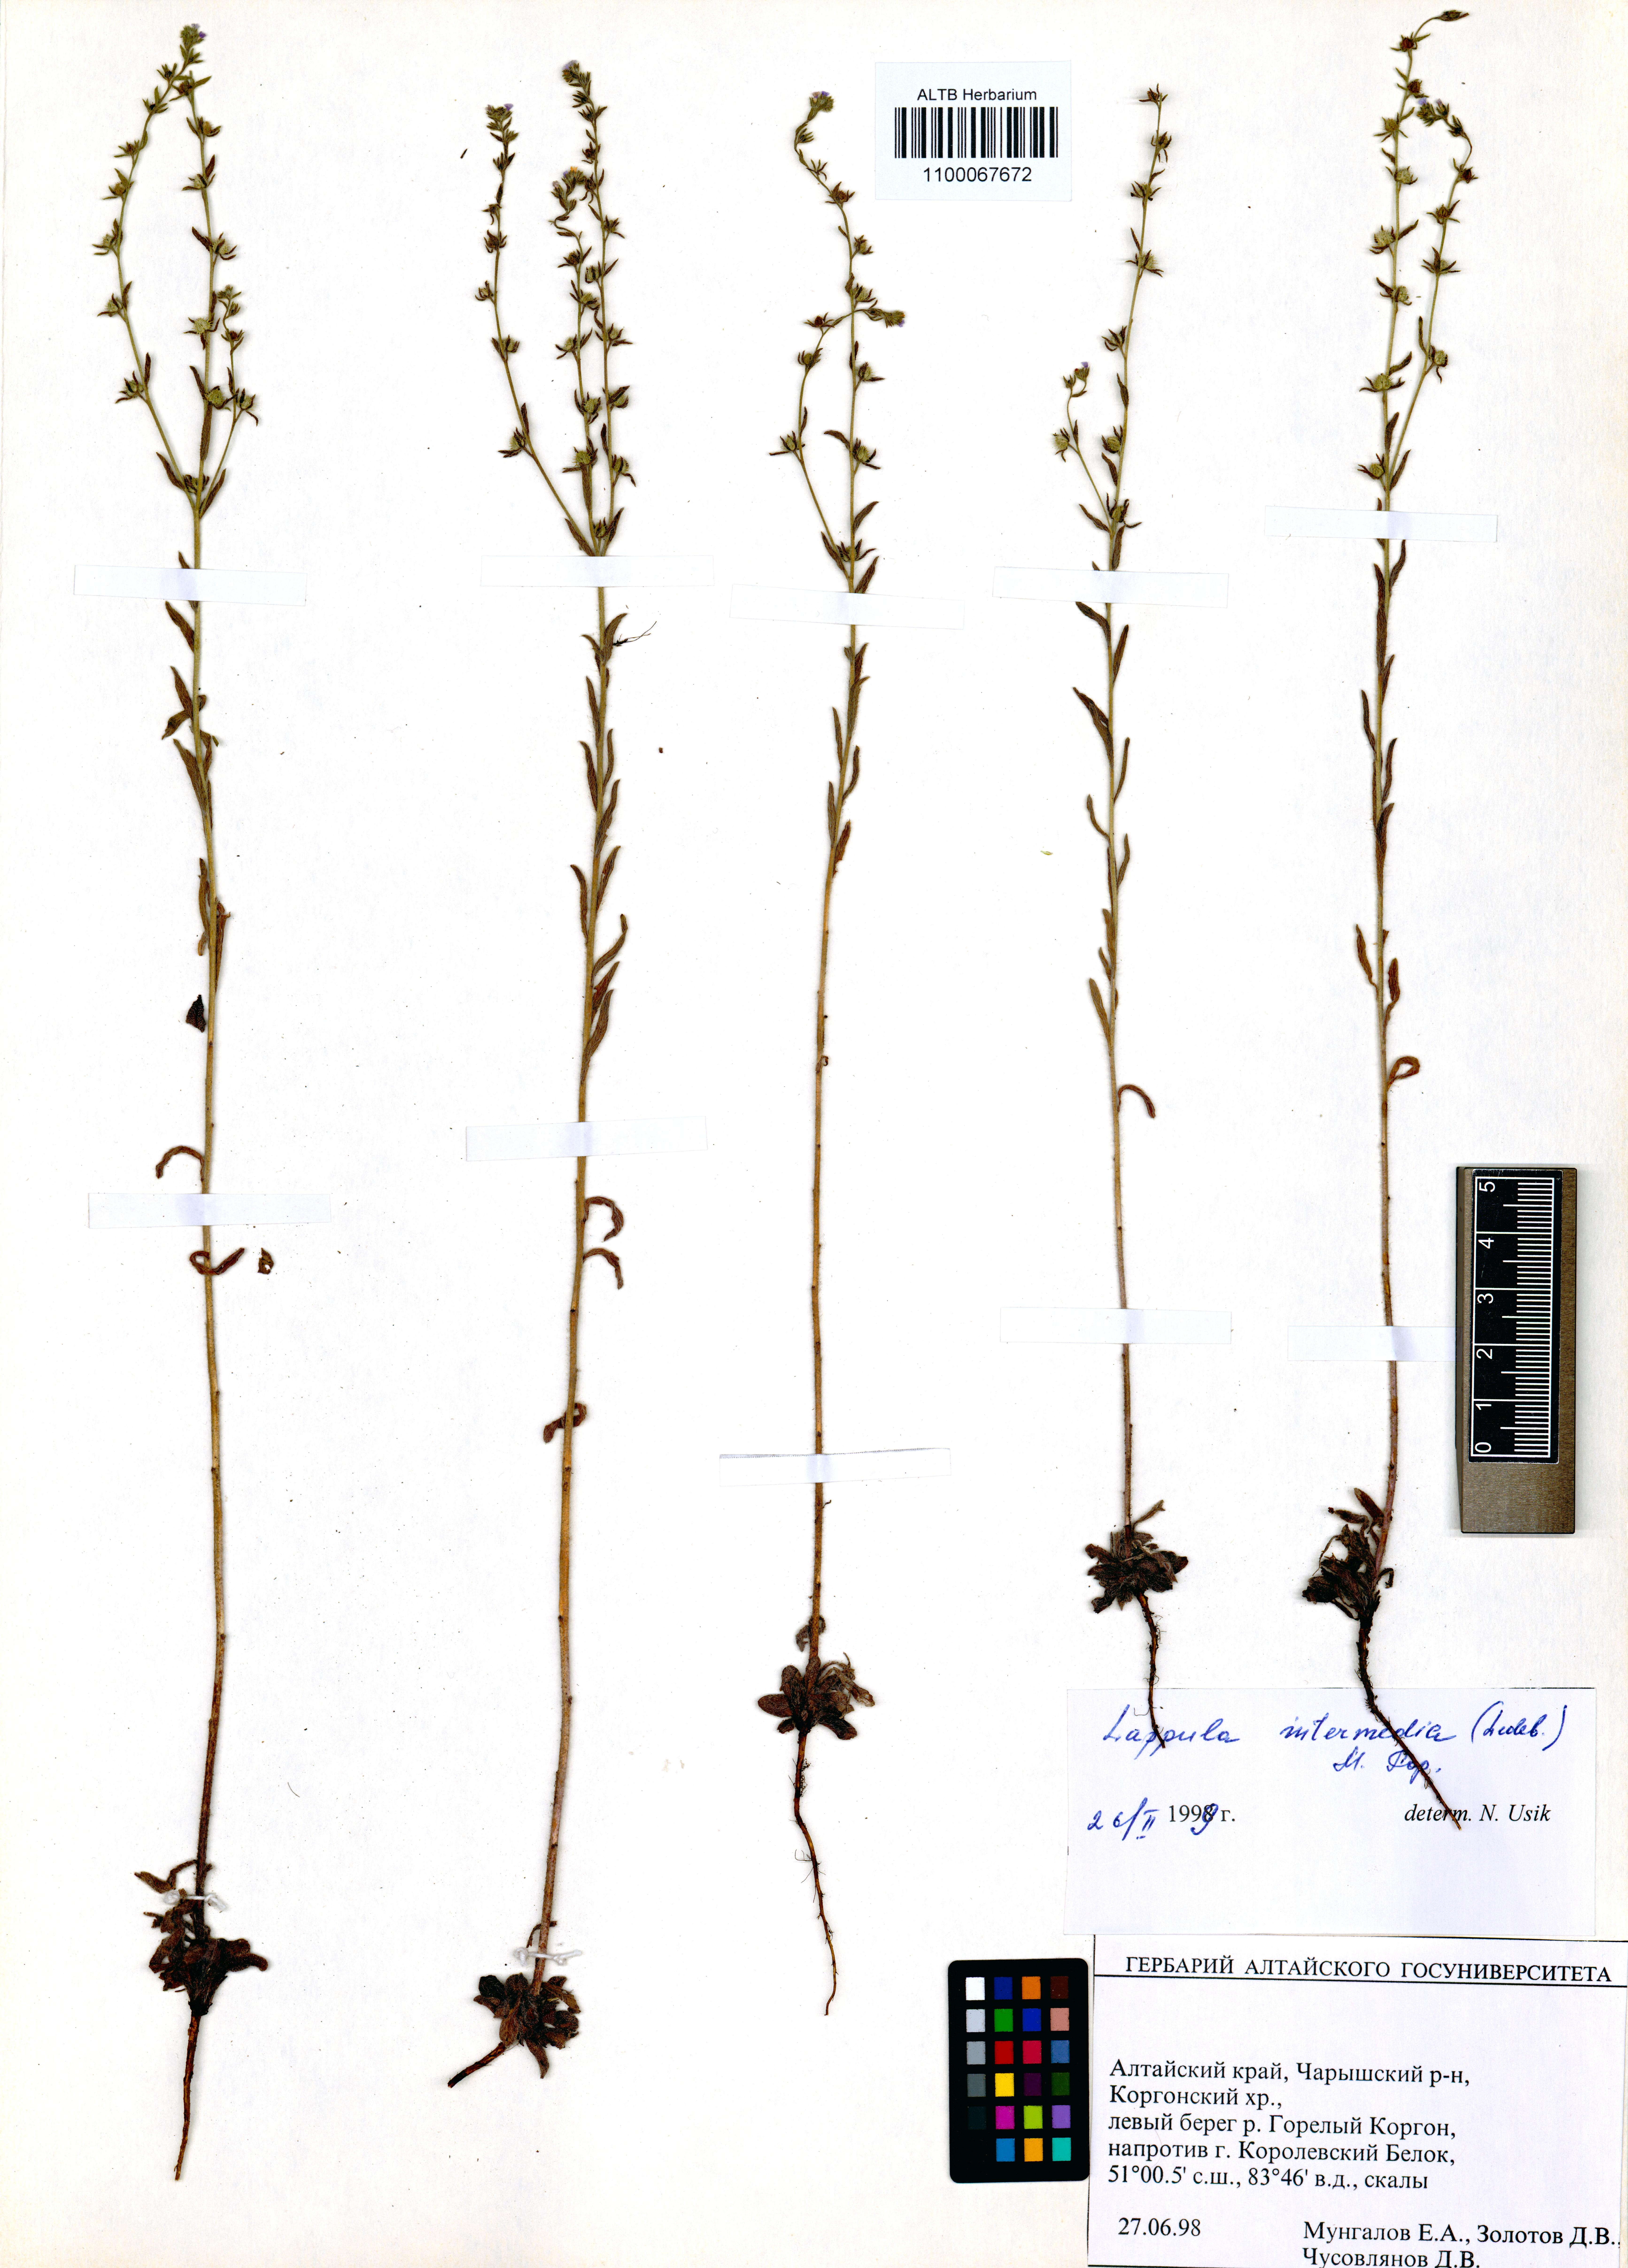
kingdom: Plantae
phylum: Tracheophyta
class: Magnoliopsida
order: Boraginales
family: Boraginaceae
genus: Lappula
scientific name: Lappula intermedia
